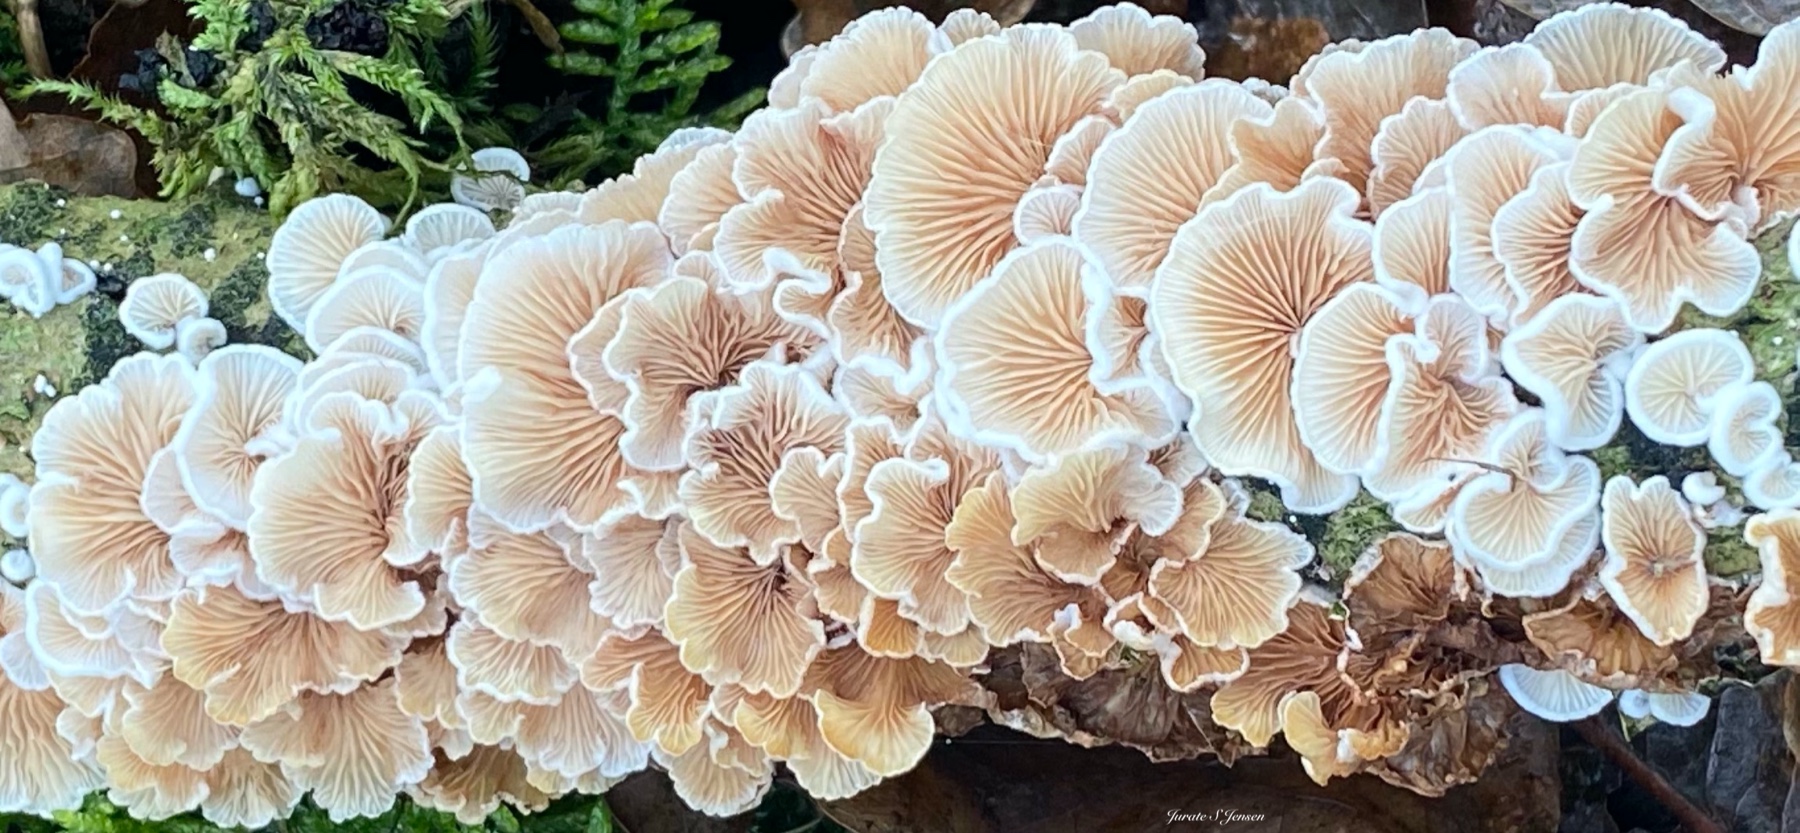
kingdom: Fungi
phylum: Basidiomycota
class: Agaricomycetes
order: Agaricales
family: Crepidotaceae
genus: Crepidotus
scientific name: Crepidotus
